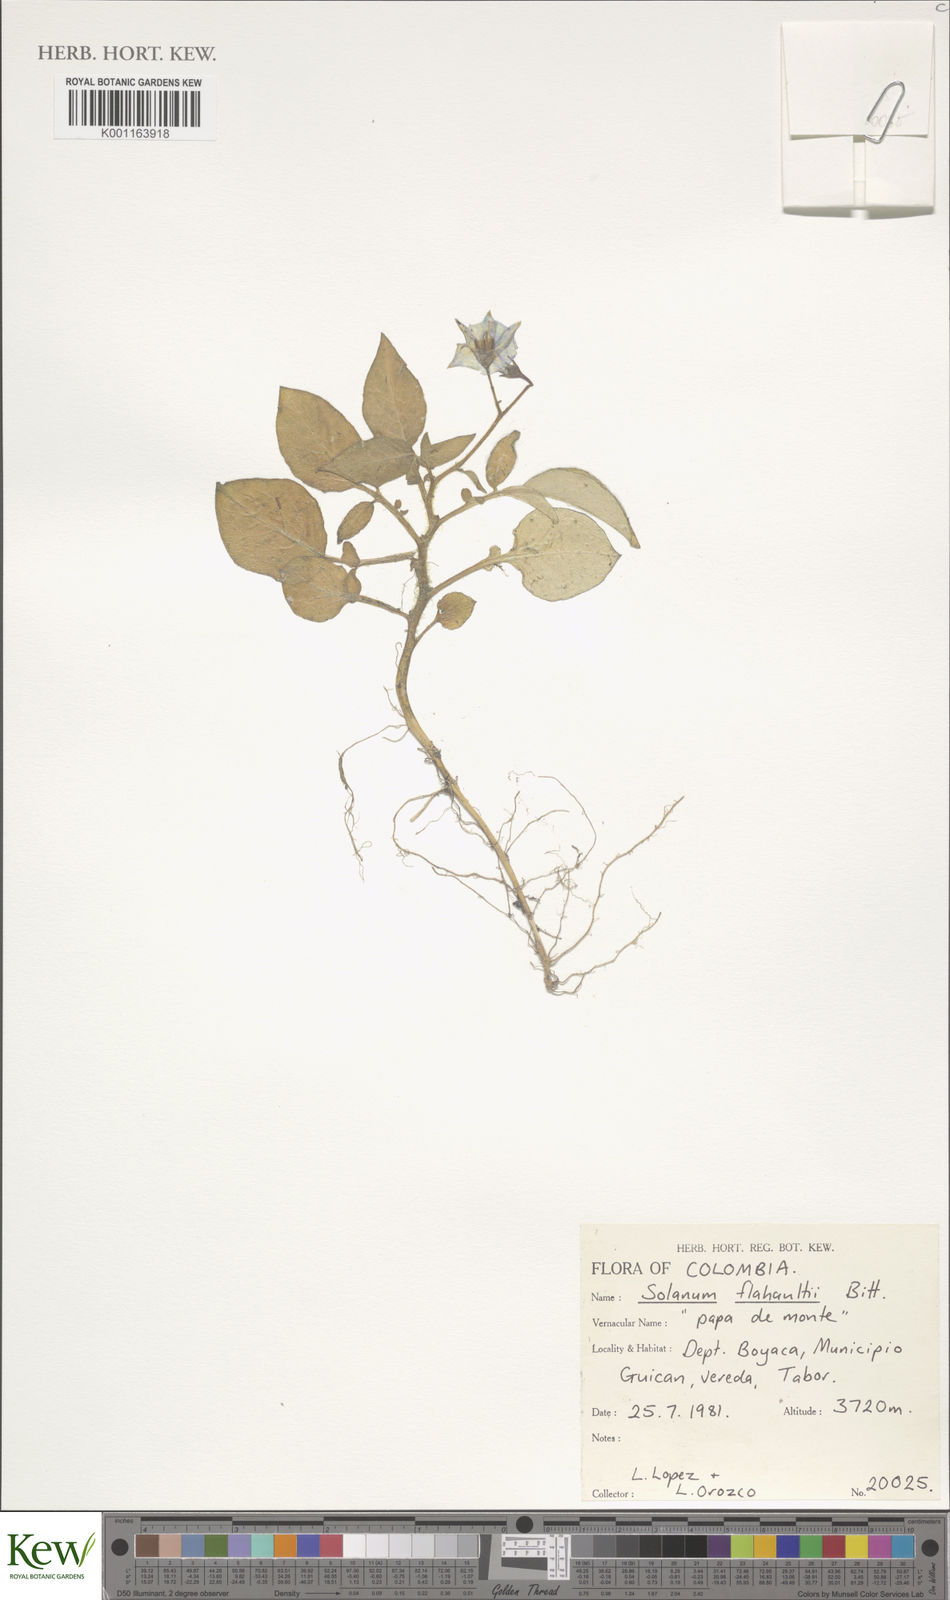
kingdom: Plantae
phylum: Tracheophyta
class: Magnoliopsida
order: Solanales
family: Solanaceae
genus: Solanum
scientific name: Solanum flahaultii
